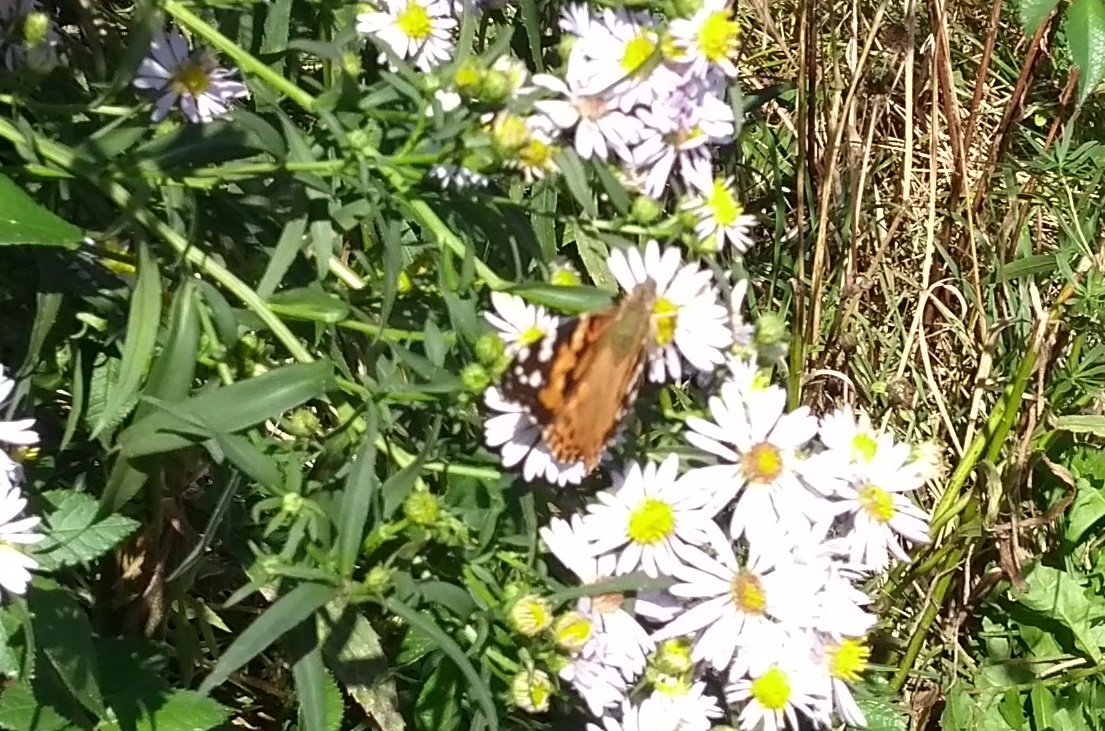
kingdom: Animalia
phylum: Arthropoda
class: Insecta
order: Lepidoptera
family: Nymphalidae
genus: Vanessa
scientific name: Vanessa cardui
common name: Painted Lady
